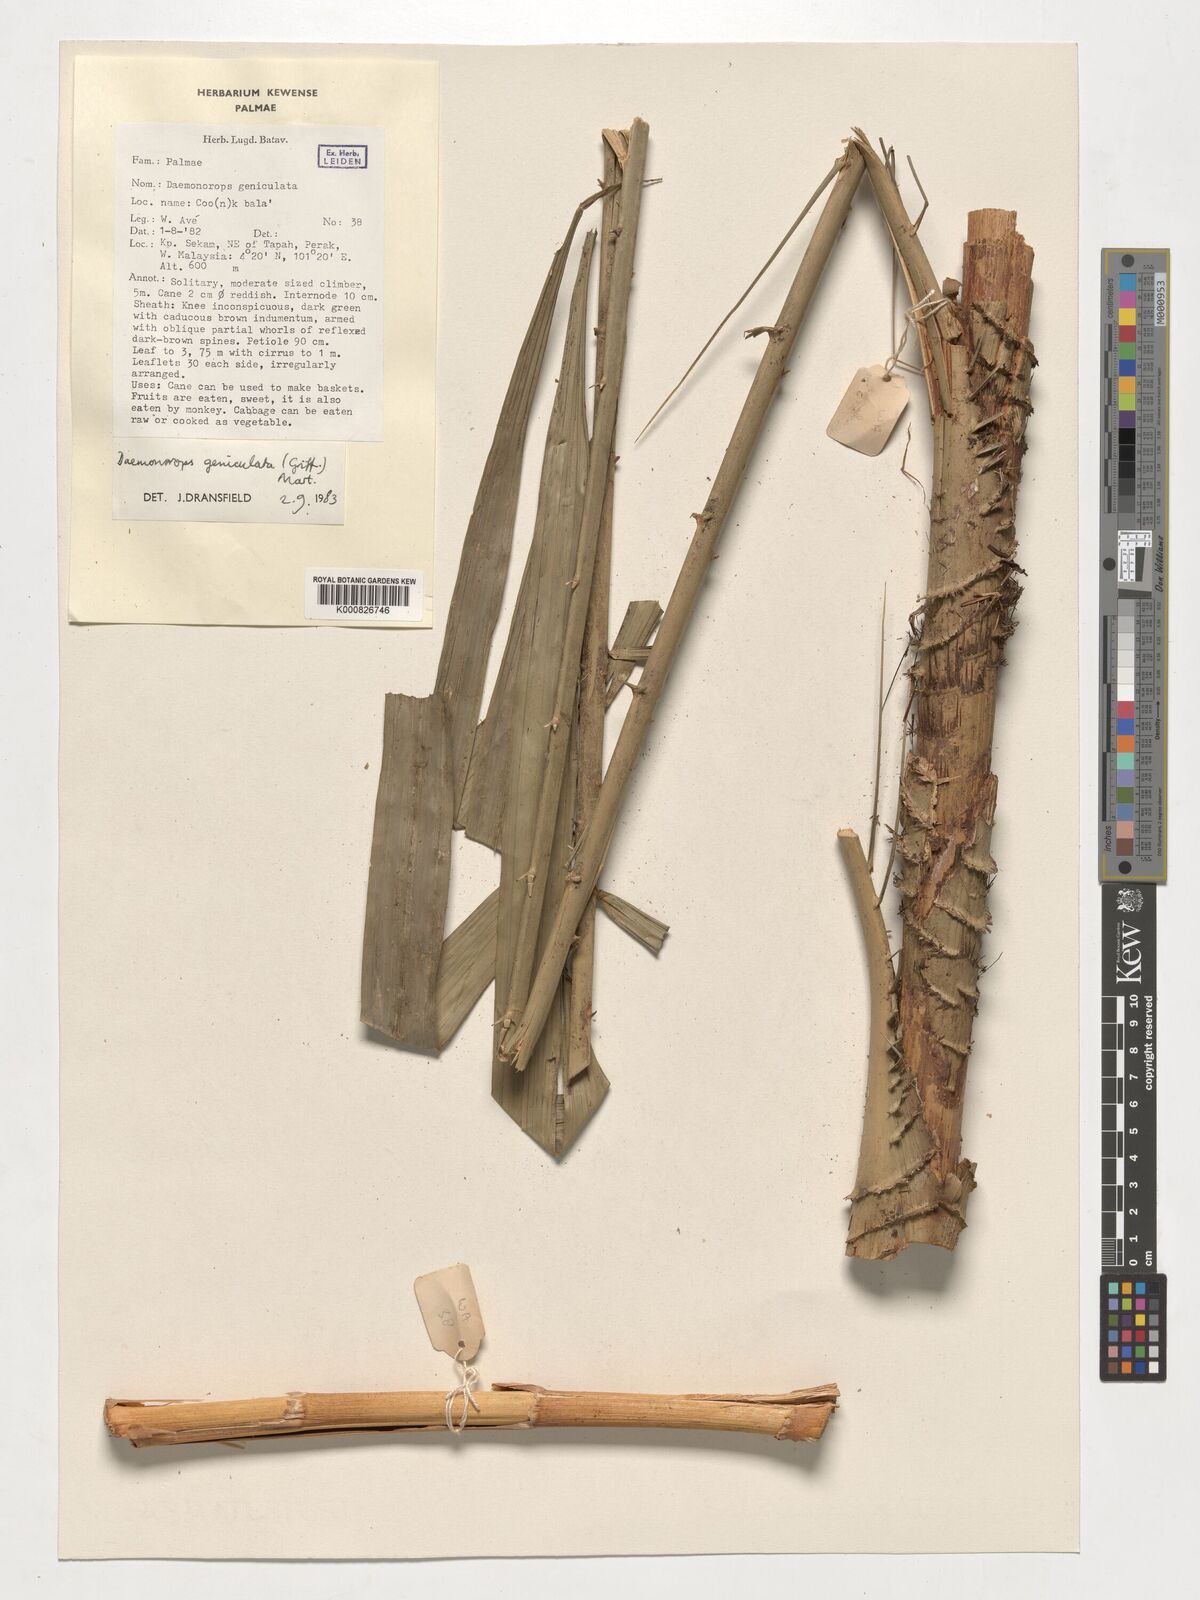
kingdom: Plantae
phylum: Tracheophyta
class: Liliopsida
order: Arecales
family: Arecaceae
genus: Calamus
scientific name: Calamus geniculatus
